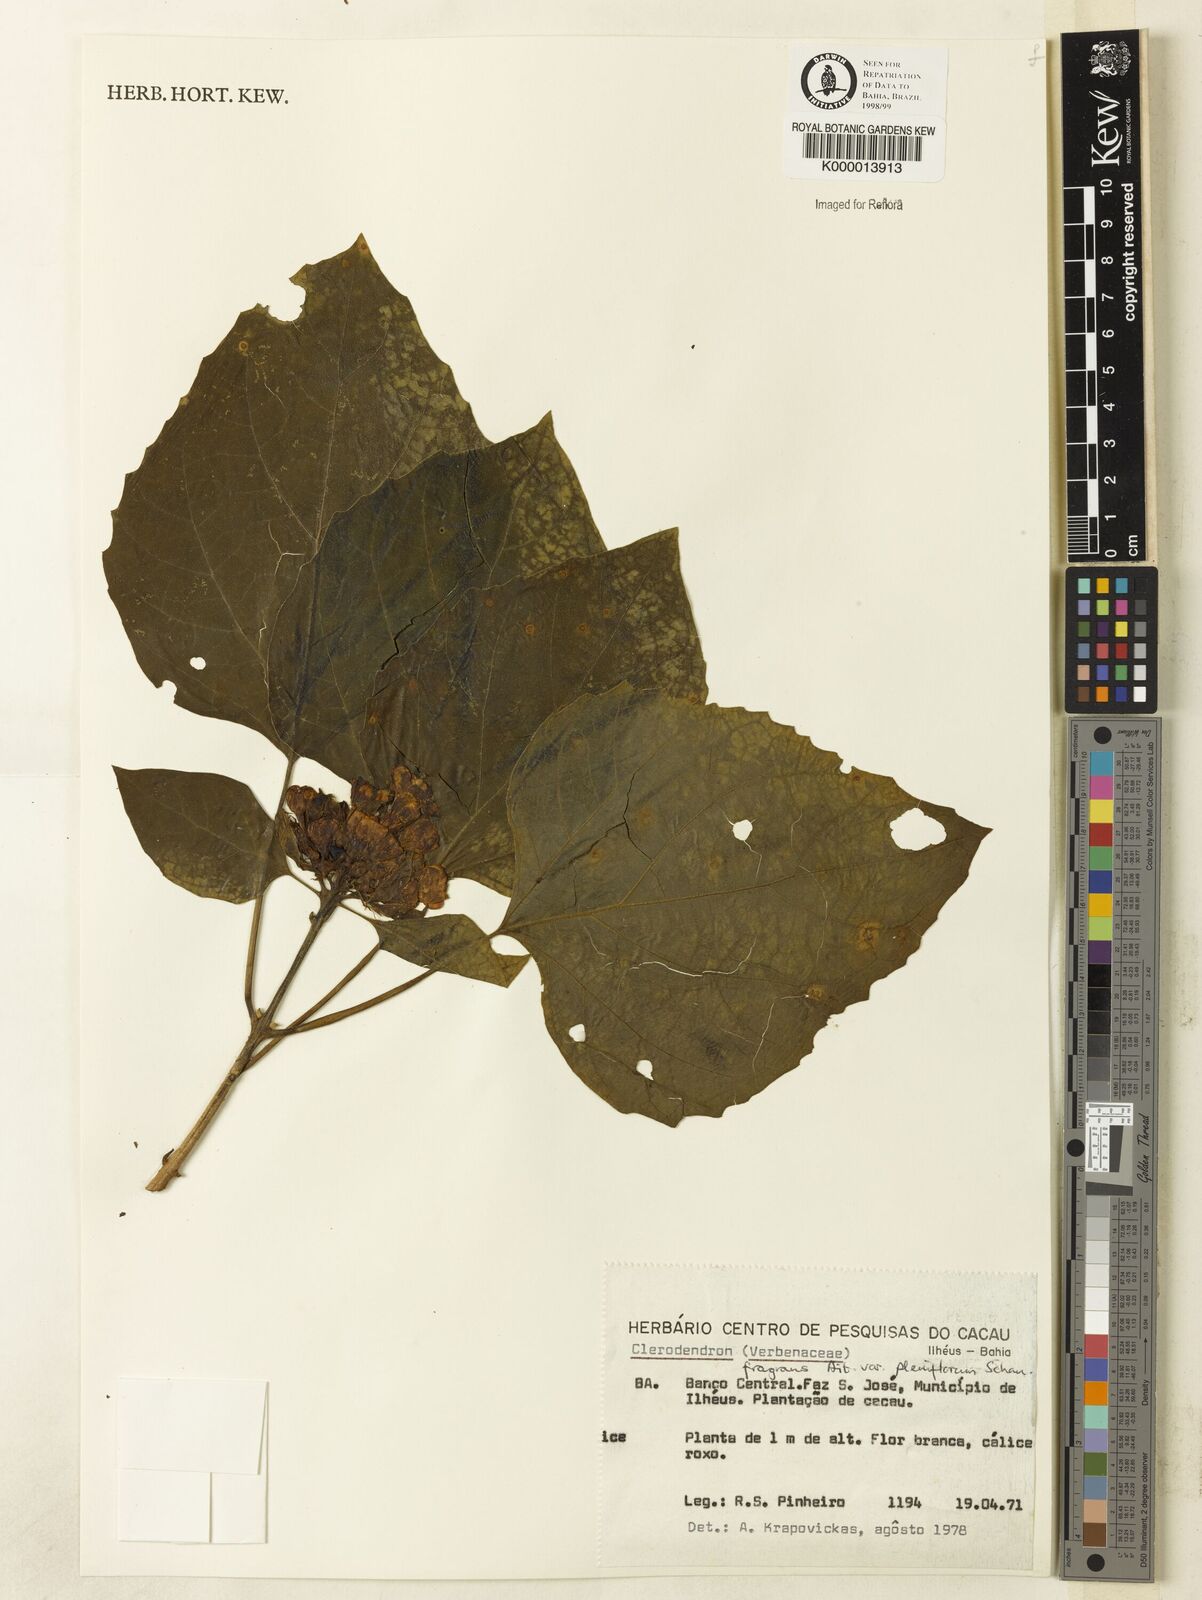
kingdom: Plantae
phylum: Tracheophyta
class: Magnoliopsida
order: Lamiales
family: Lamiaceae
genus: Clerodendrum
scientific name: Clerodendrum chinense
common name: Stickbush
